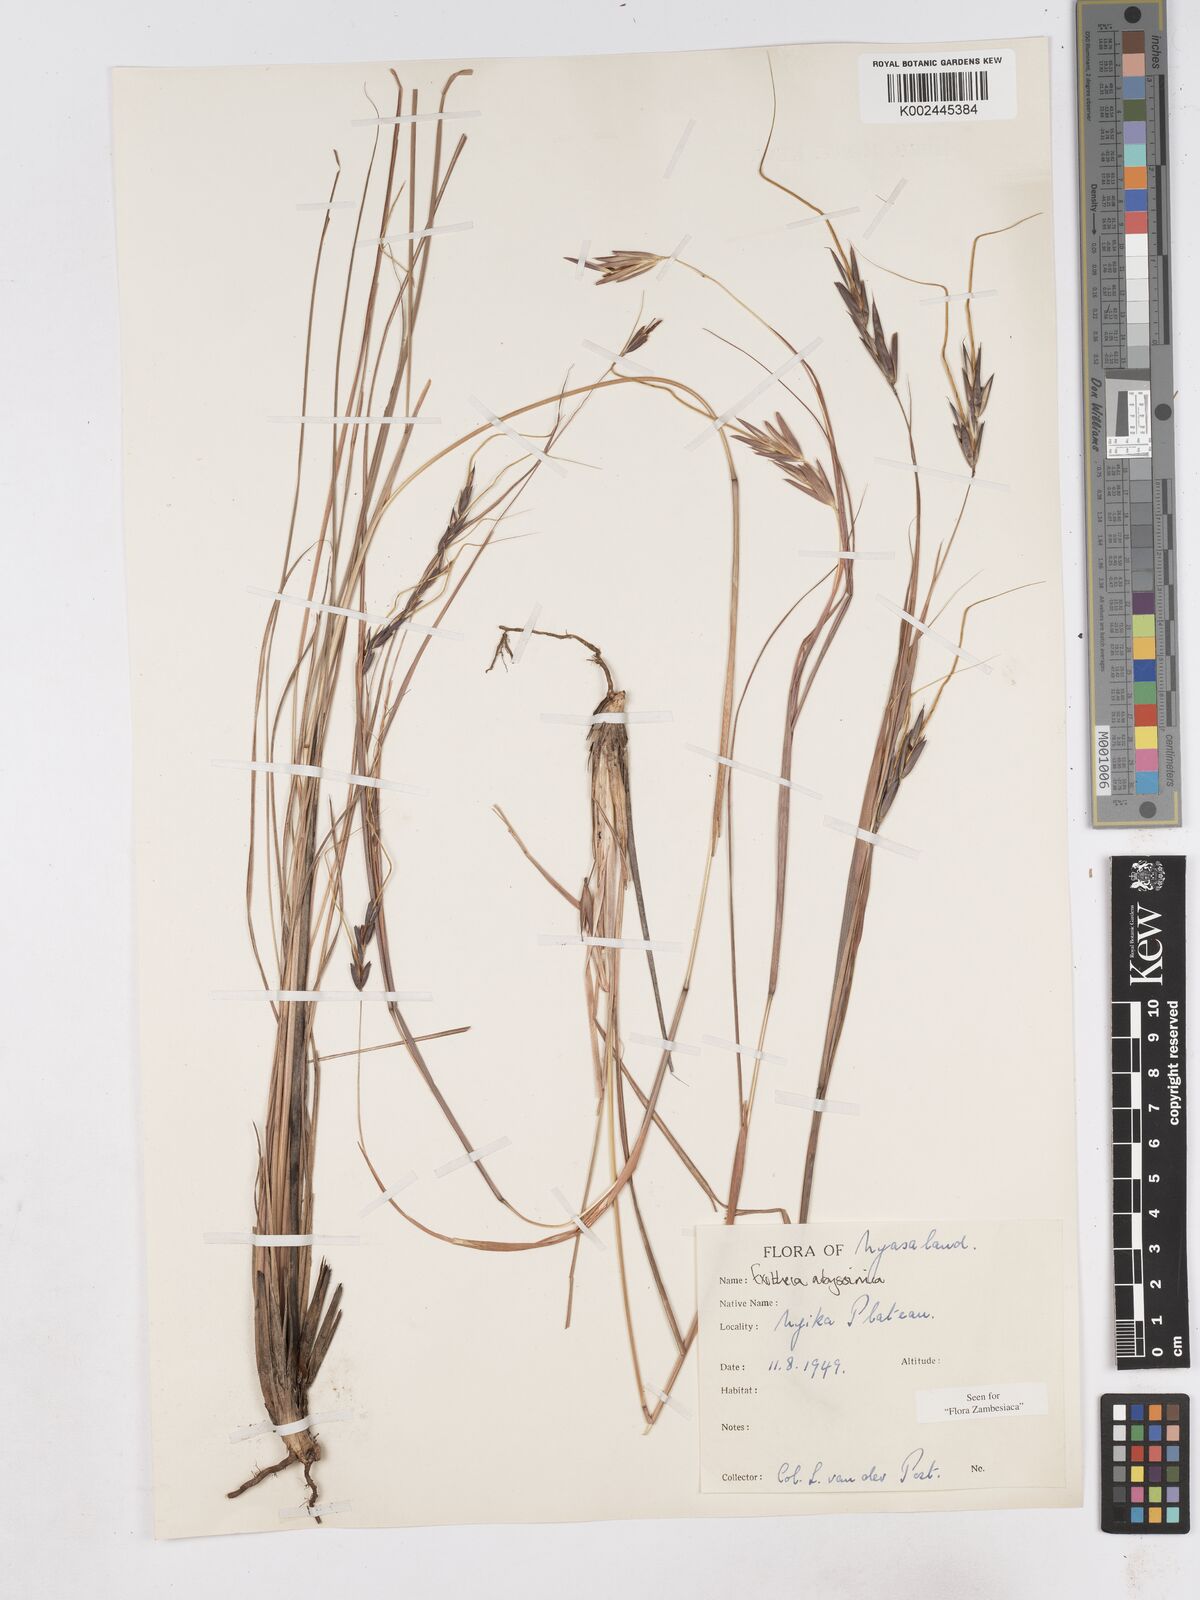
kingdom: Plantae
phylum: Tracheophyta
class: Liliopsida
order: Poales
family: Poaceae
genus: Exotheca
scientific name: Exotheca abyssinica
